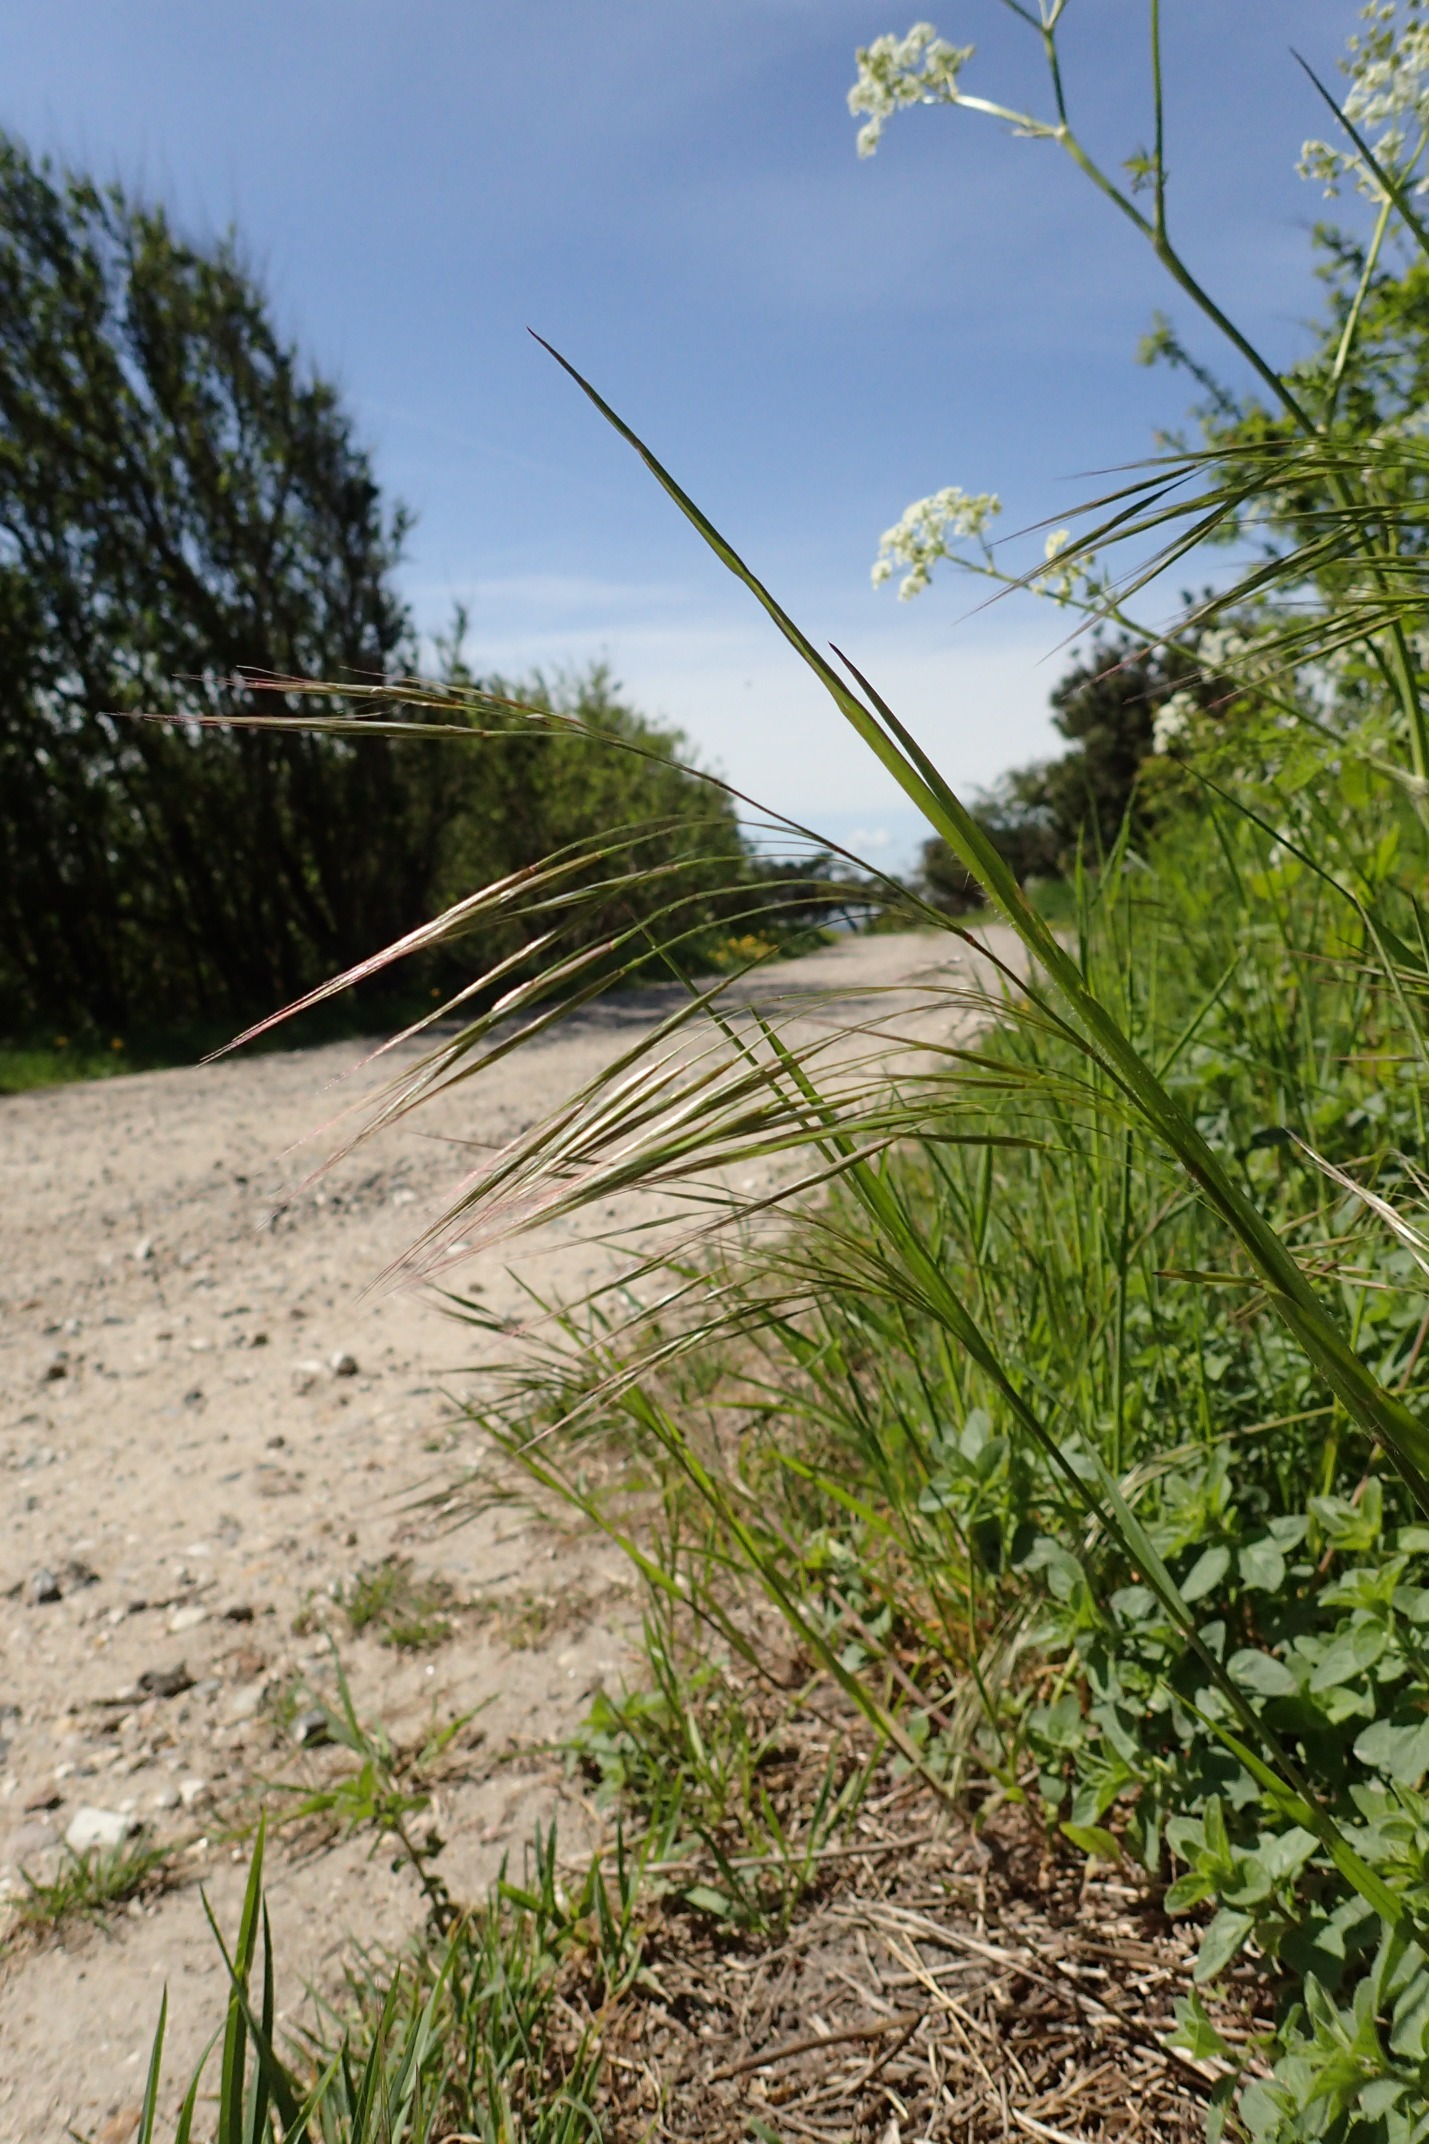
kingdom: Plantae
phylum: Tracheophyta
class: Liliopsida
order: Poales
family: Poaceae
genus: Bromus
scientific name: Bromus sterilis
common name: Gold hejre
